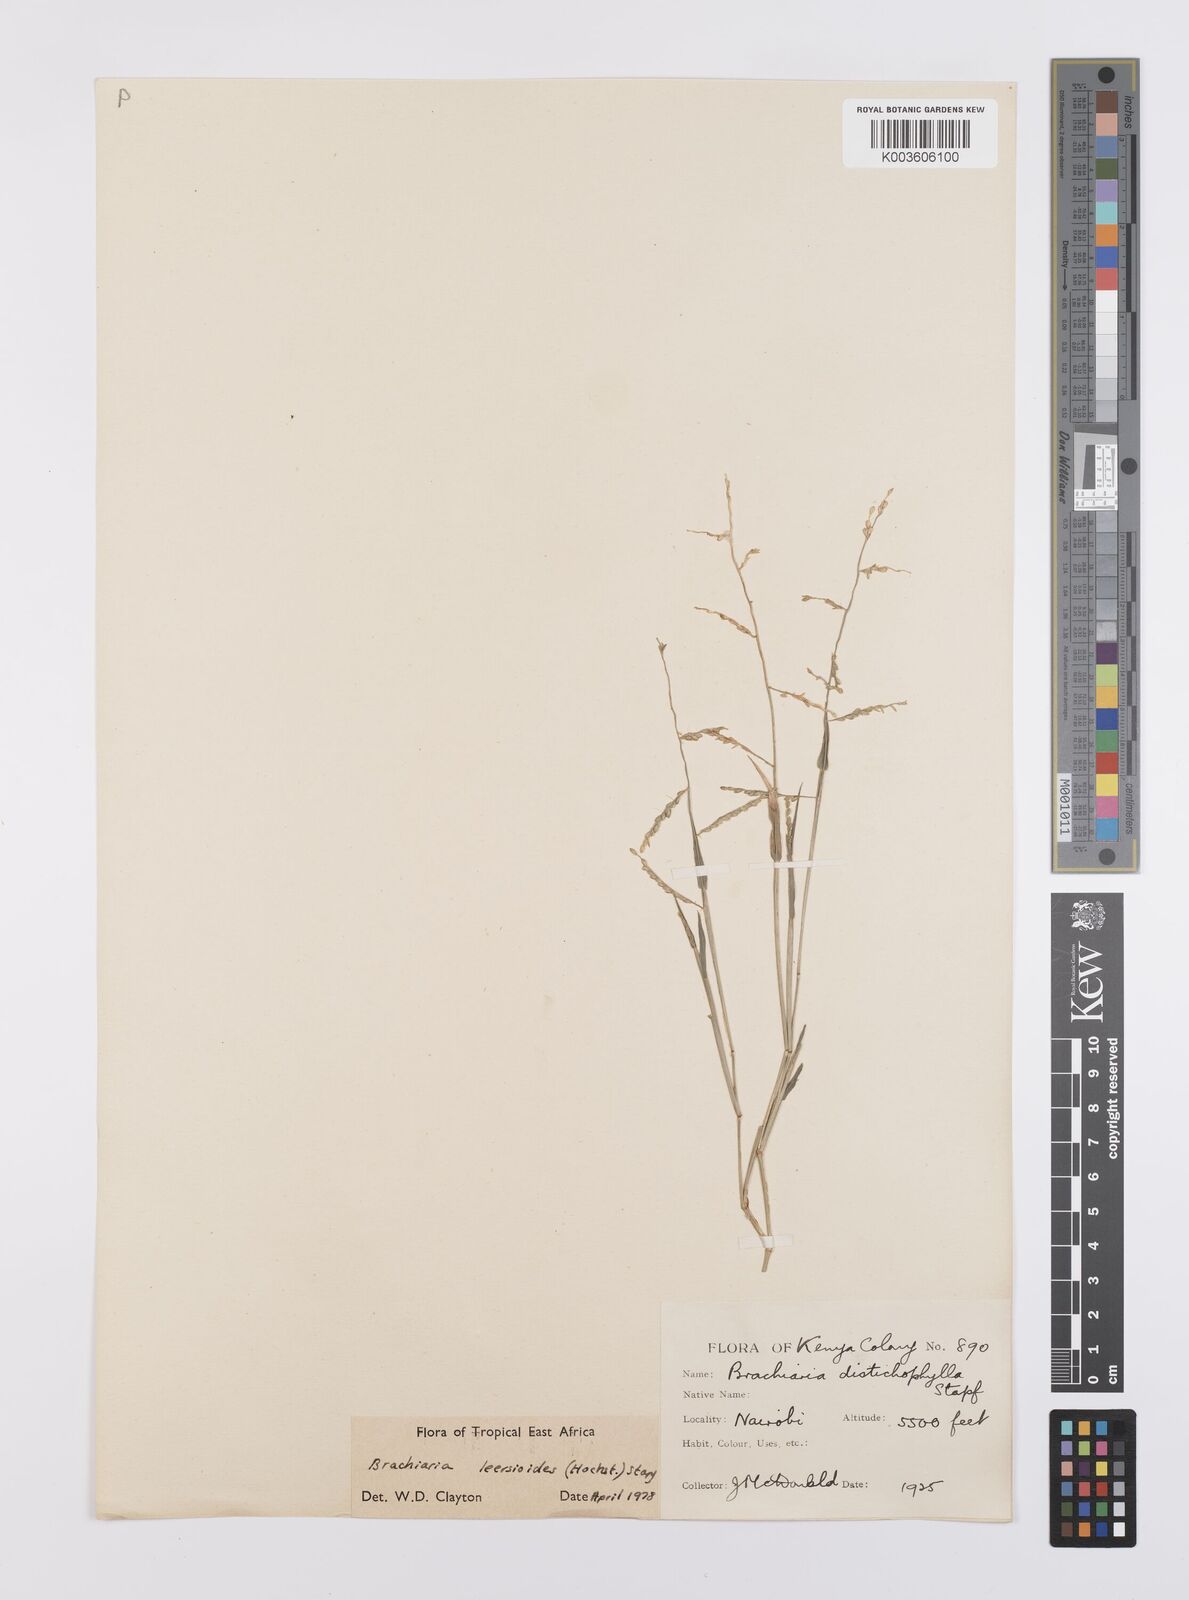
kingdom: Plantae
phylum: Tracheophyta
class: Liliopsida
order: Poales
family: Poaceae
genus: Urochloa
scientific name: Urochloa leersioides
